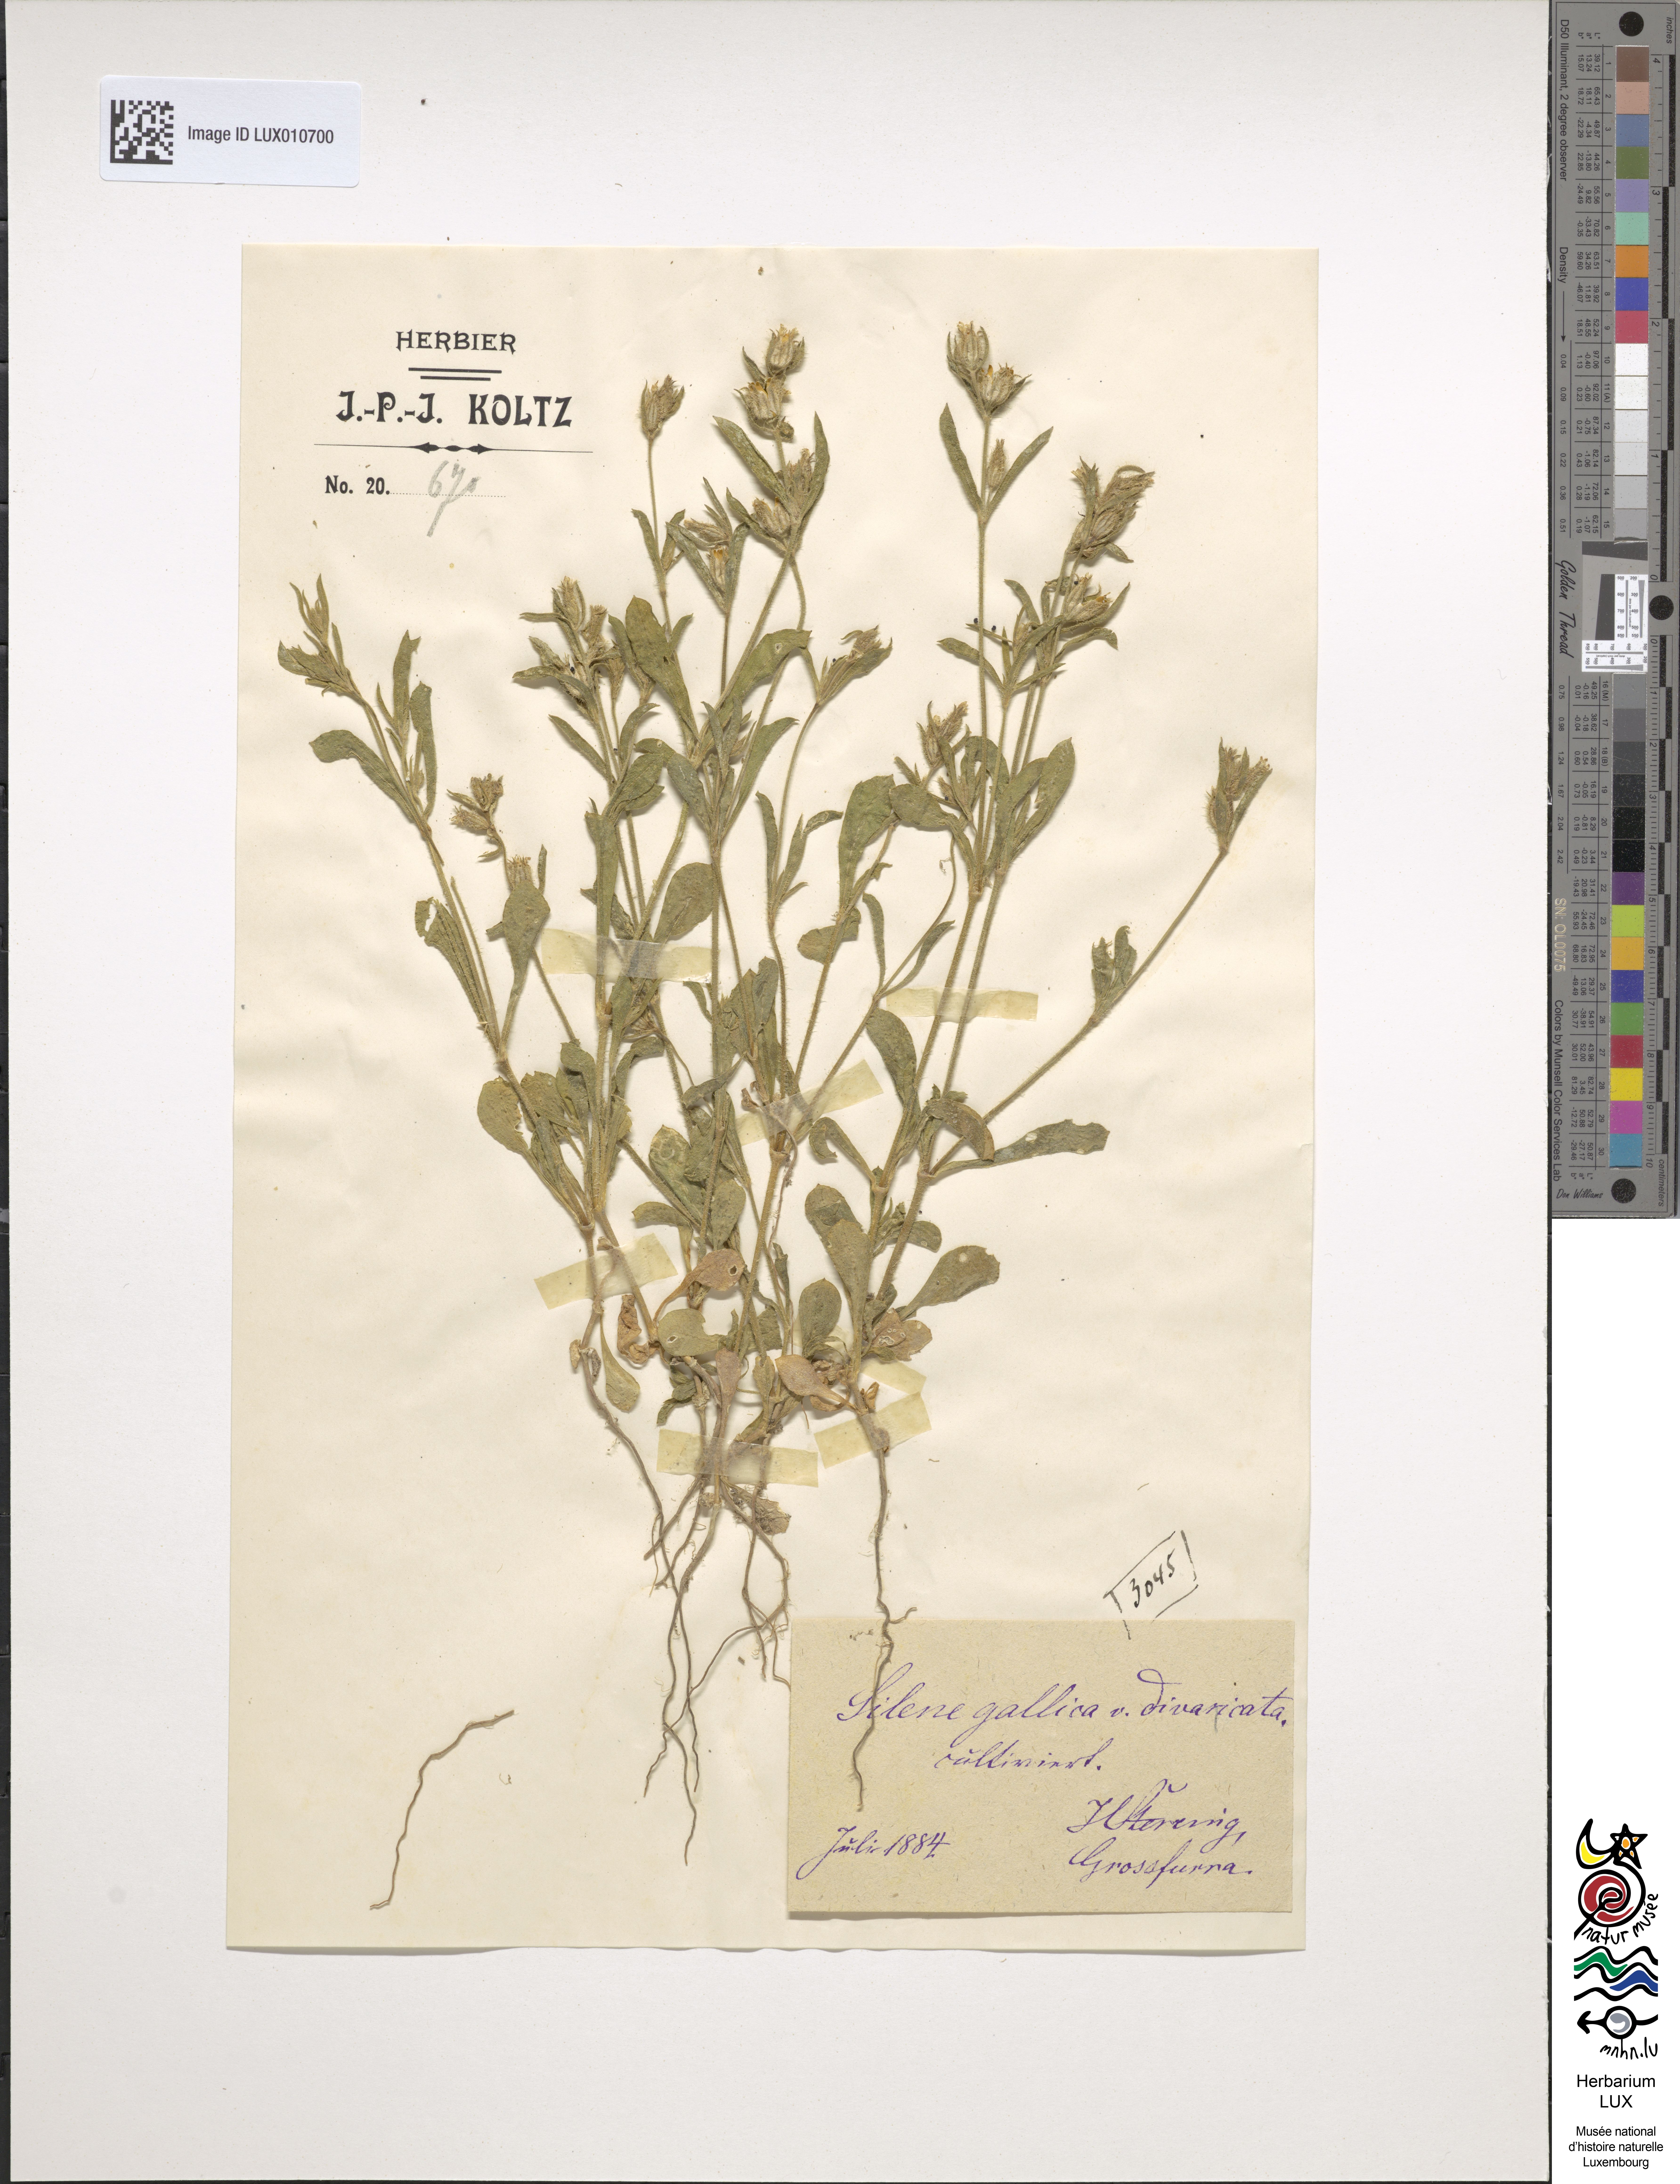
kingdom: Plantae
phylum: Tracheophyta
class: Magnoliopsida
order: Caryophyllales
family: Caryophyllaceae
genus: Silene
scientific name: Silene gallica
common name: Small-flowered catchfly
